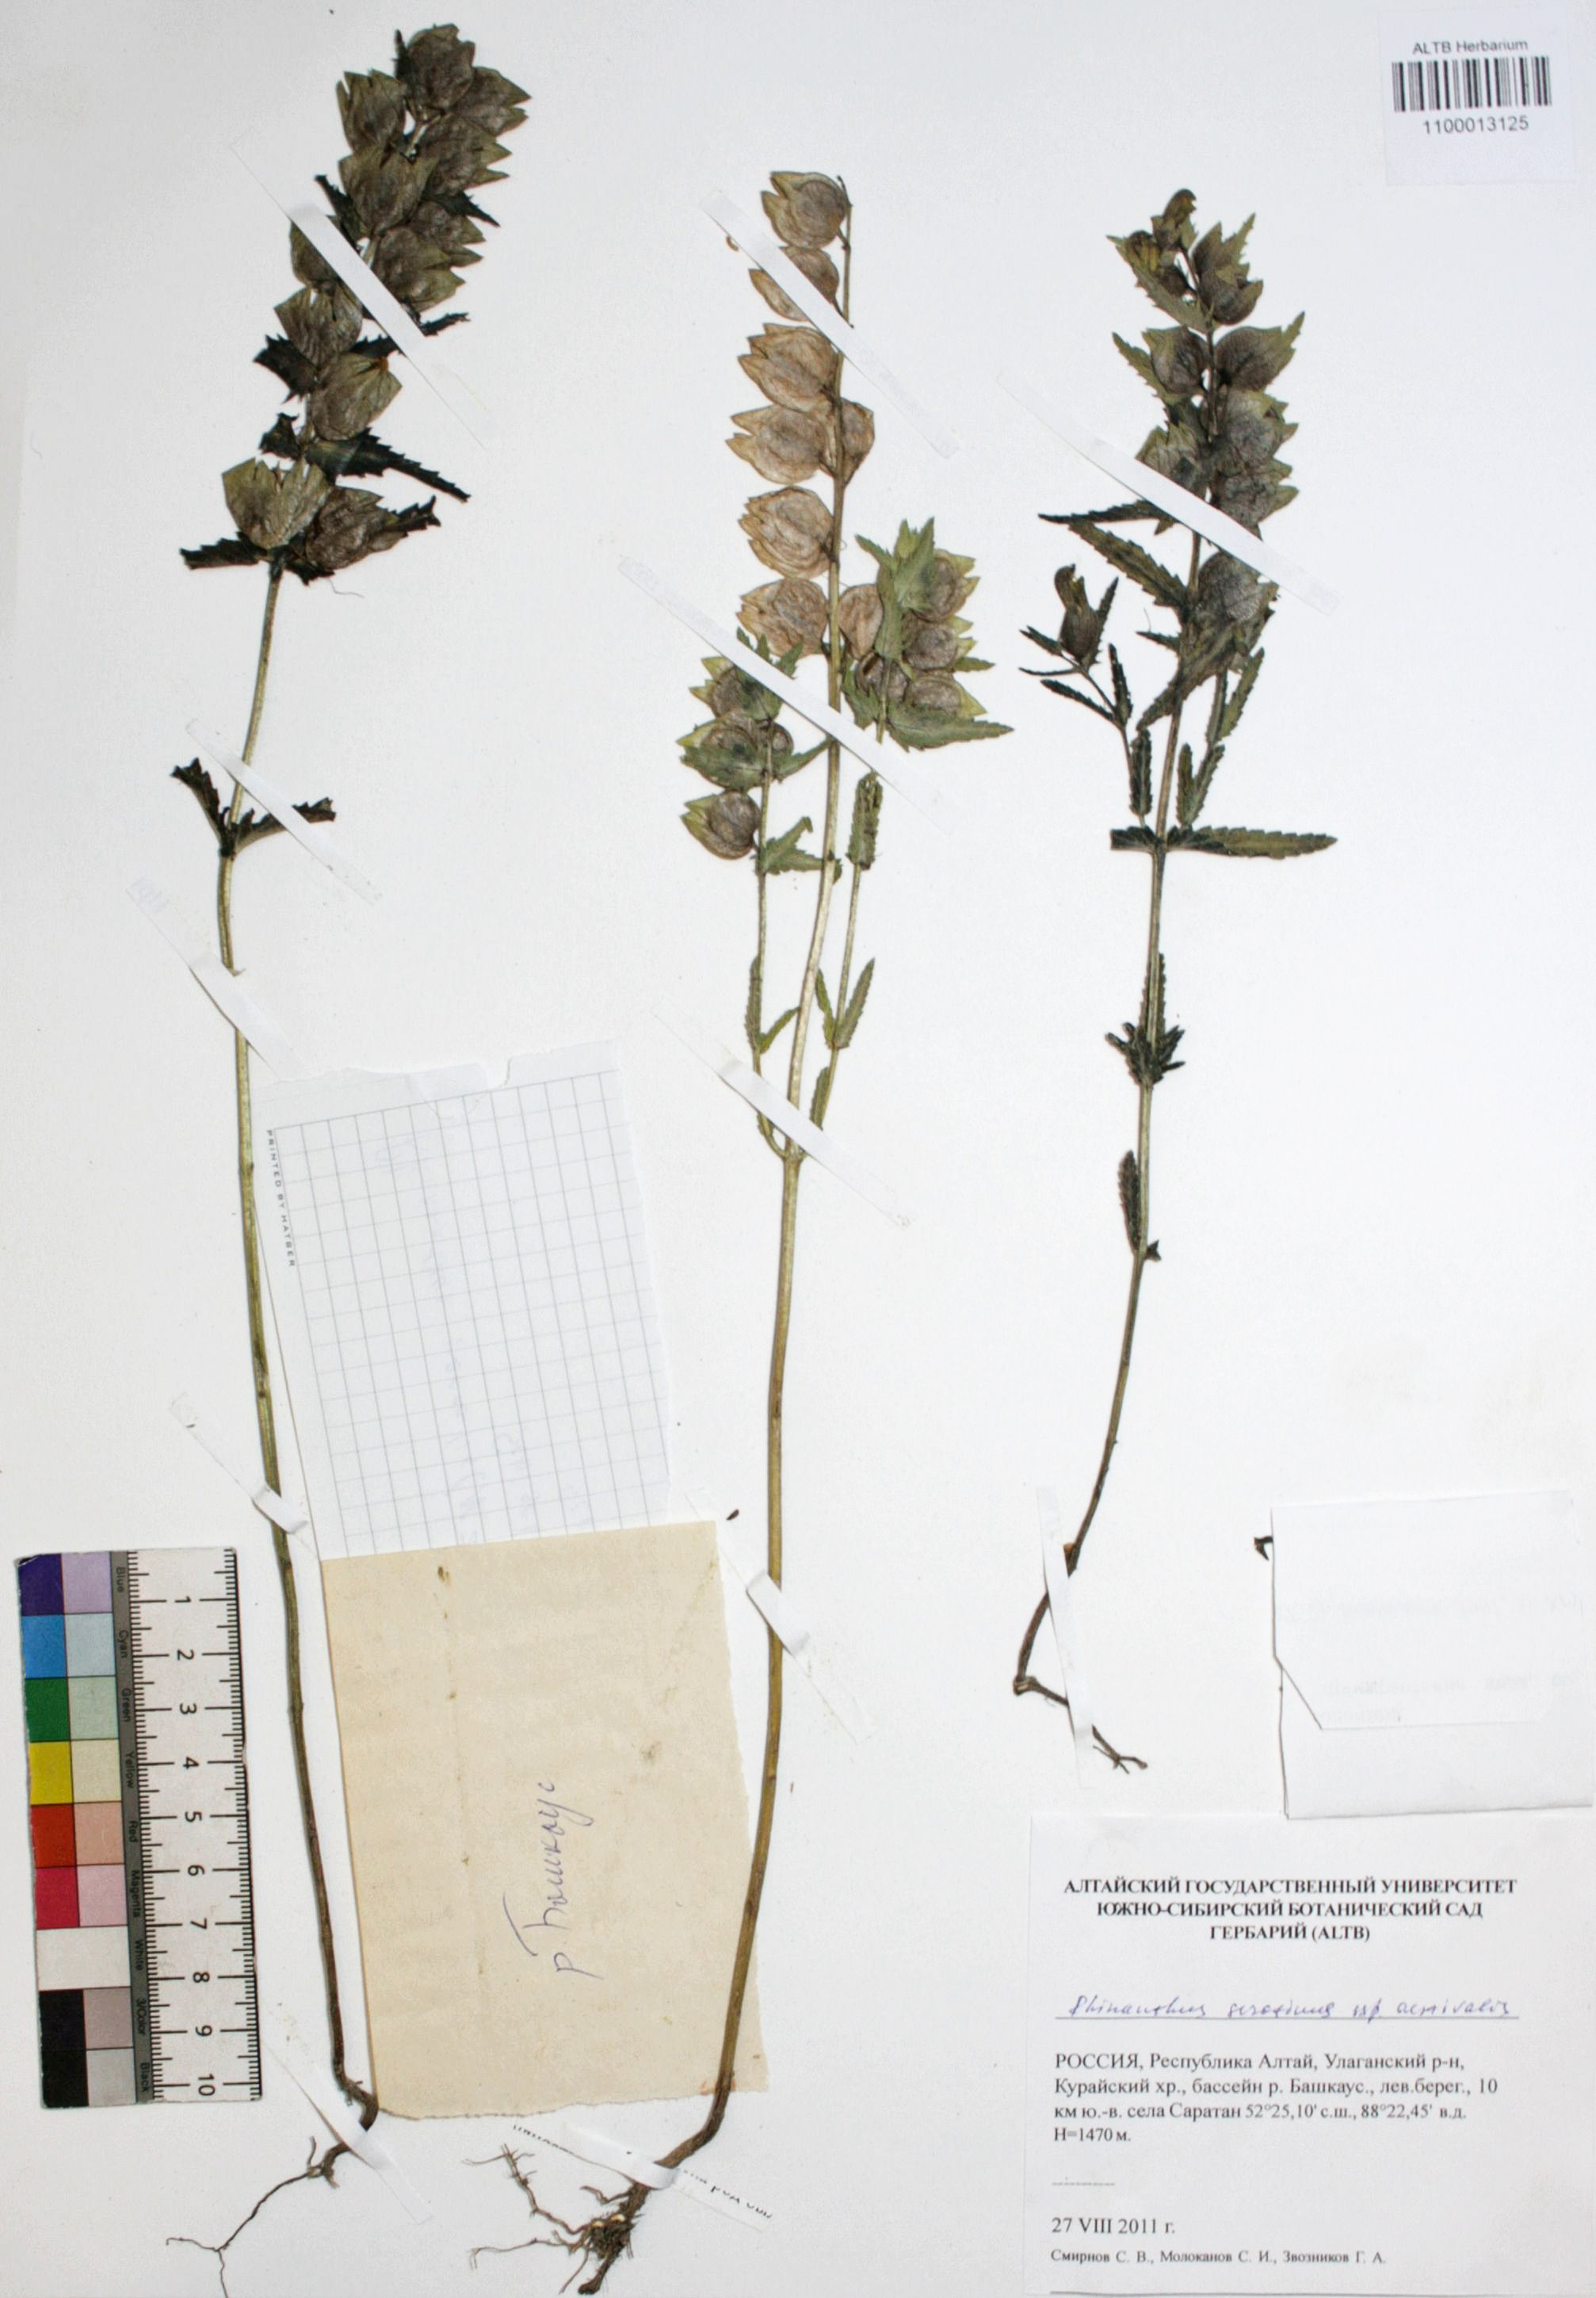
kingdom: Plantae
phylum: Tracheophyta
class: Magnoliopsida
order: Lamiales
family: Orobanchaceae
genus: Rhinanthus
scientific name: Rhinanthus serotinus
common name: Late-flowering yellow rattle
